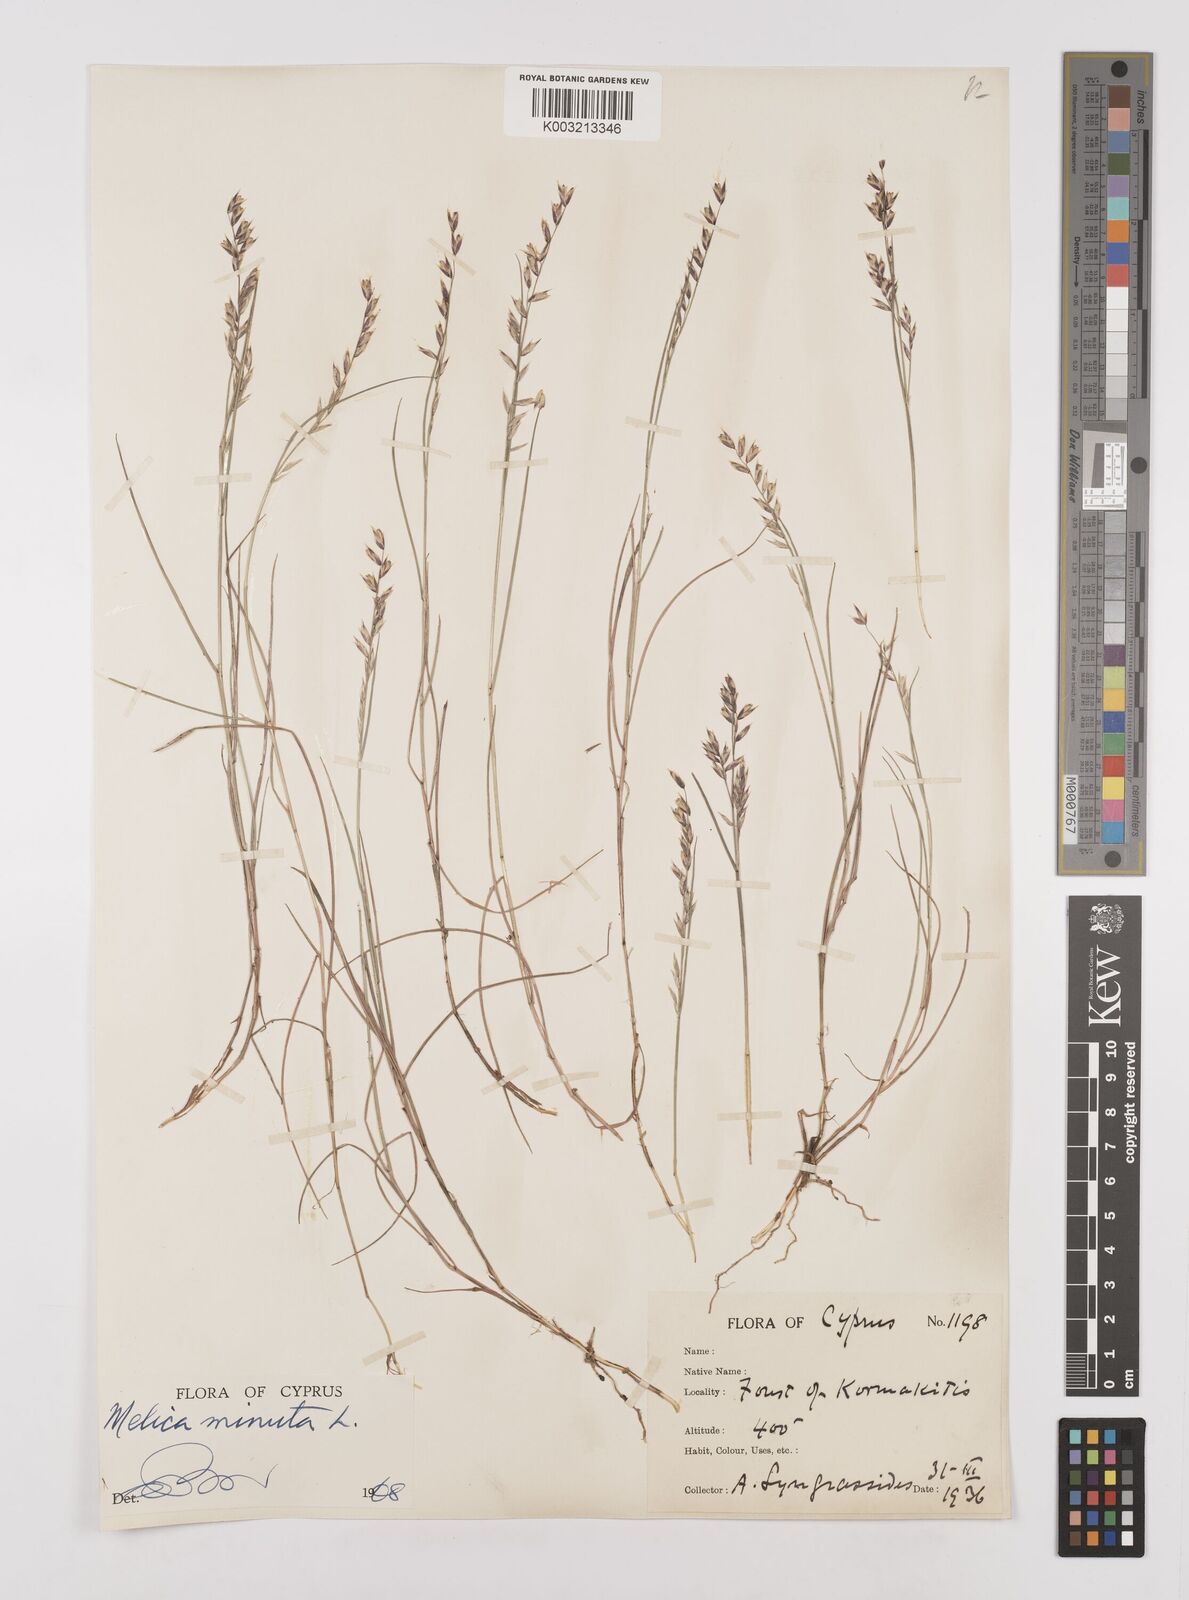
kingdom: Plantae
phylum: Tracheophyta
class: Liliopsida
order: Poales
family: Poaceae
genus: Melica
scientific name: Melica minuta
